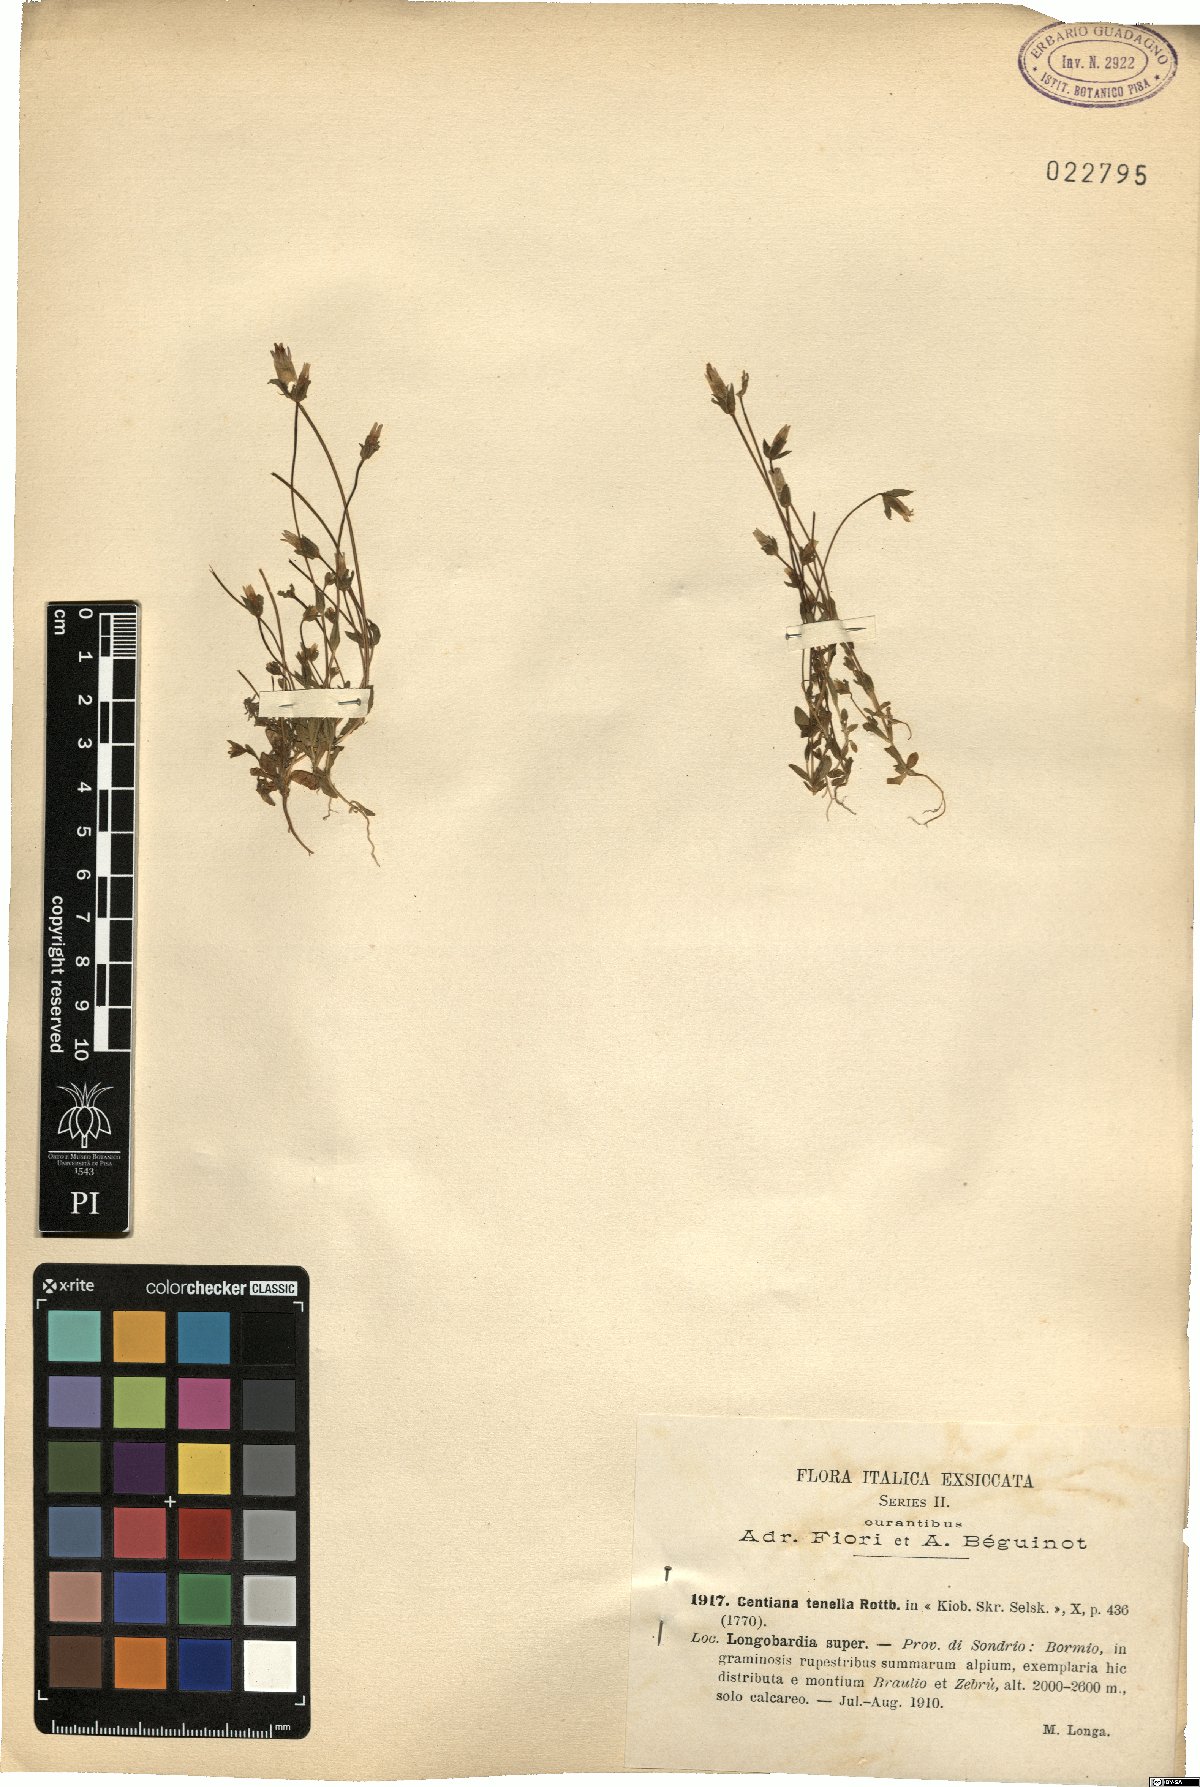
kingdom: Plantae
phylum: Tracheophyta
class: Magnoliopsida
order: Gentianales
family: Gentianaceae
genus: Comastoma
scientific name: Comastoma tenellum
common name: Dane's dwarf gentian
